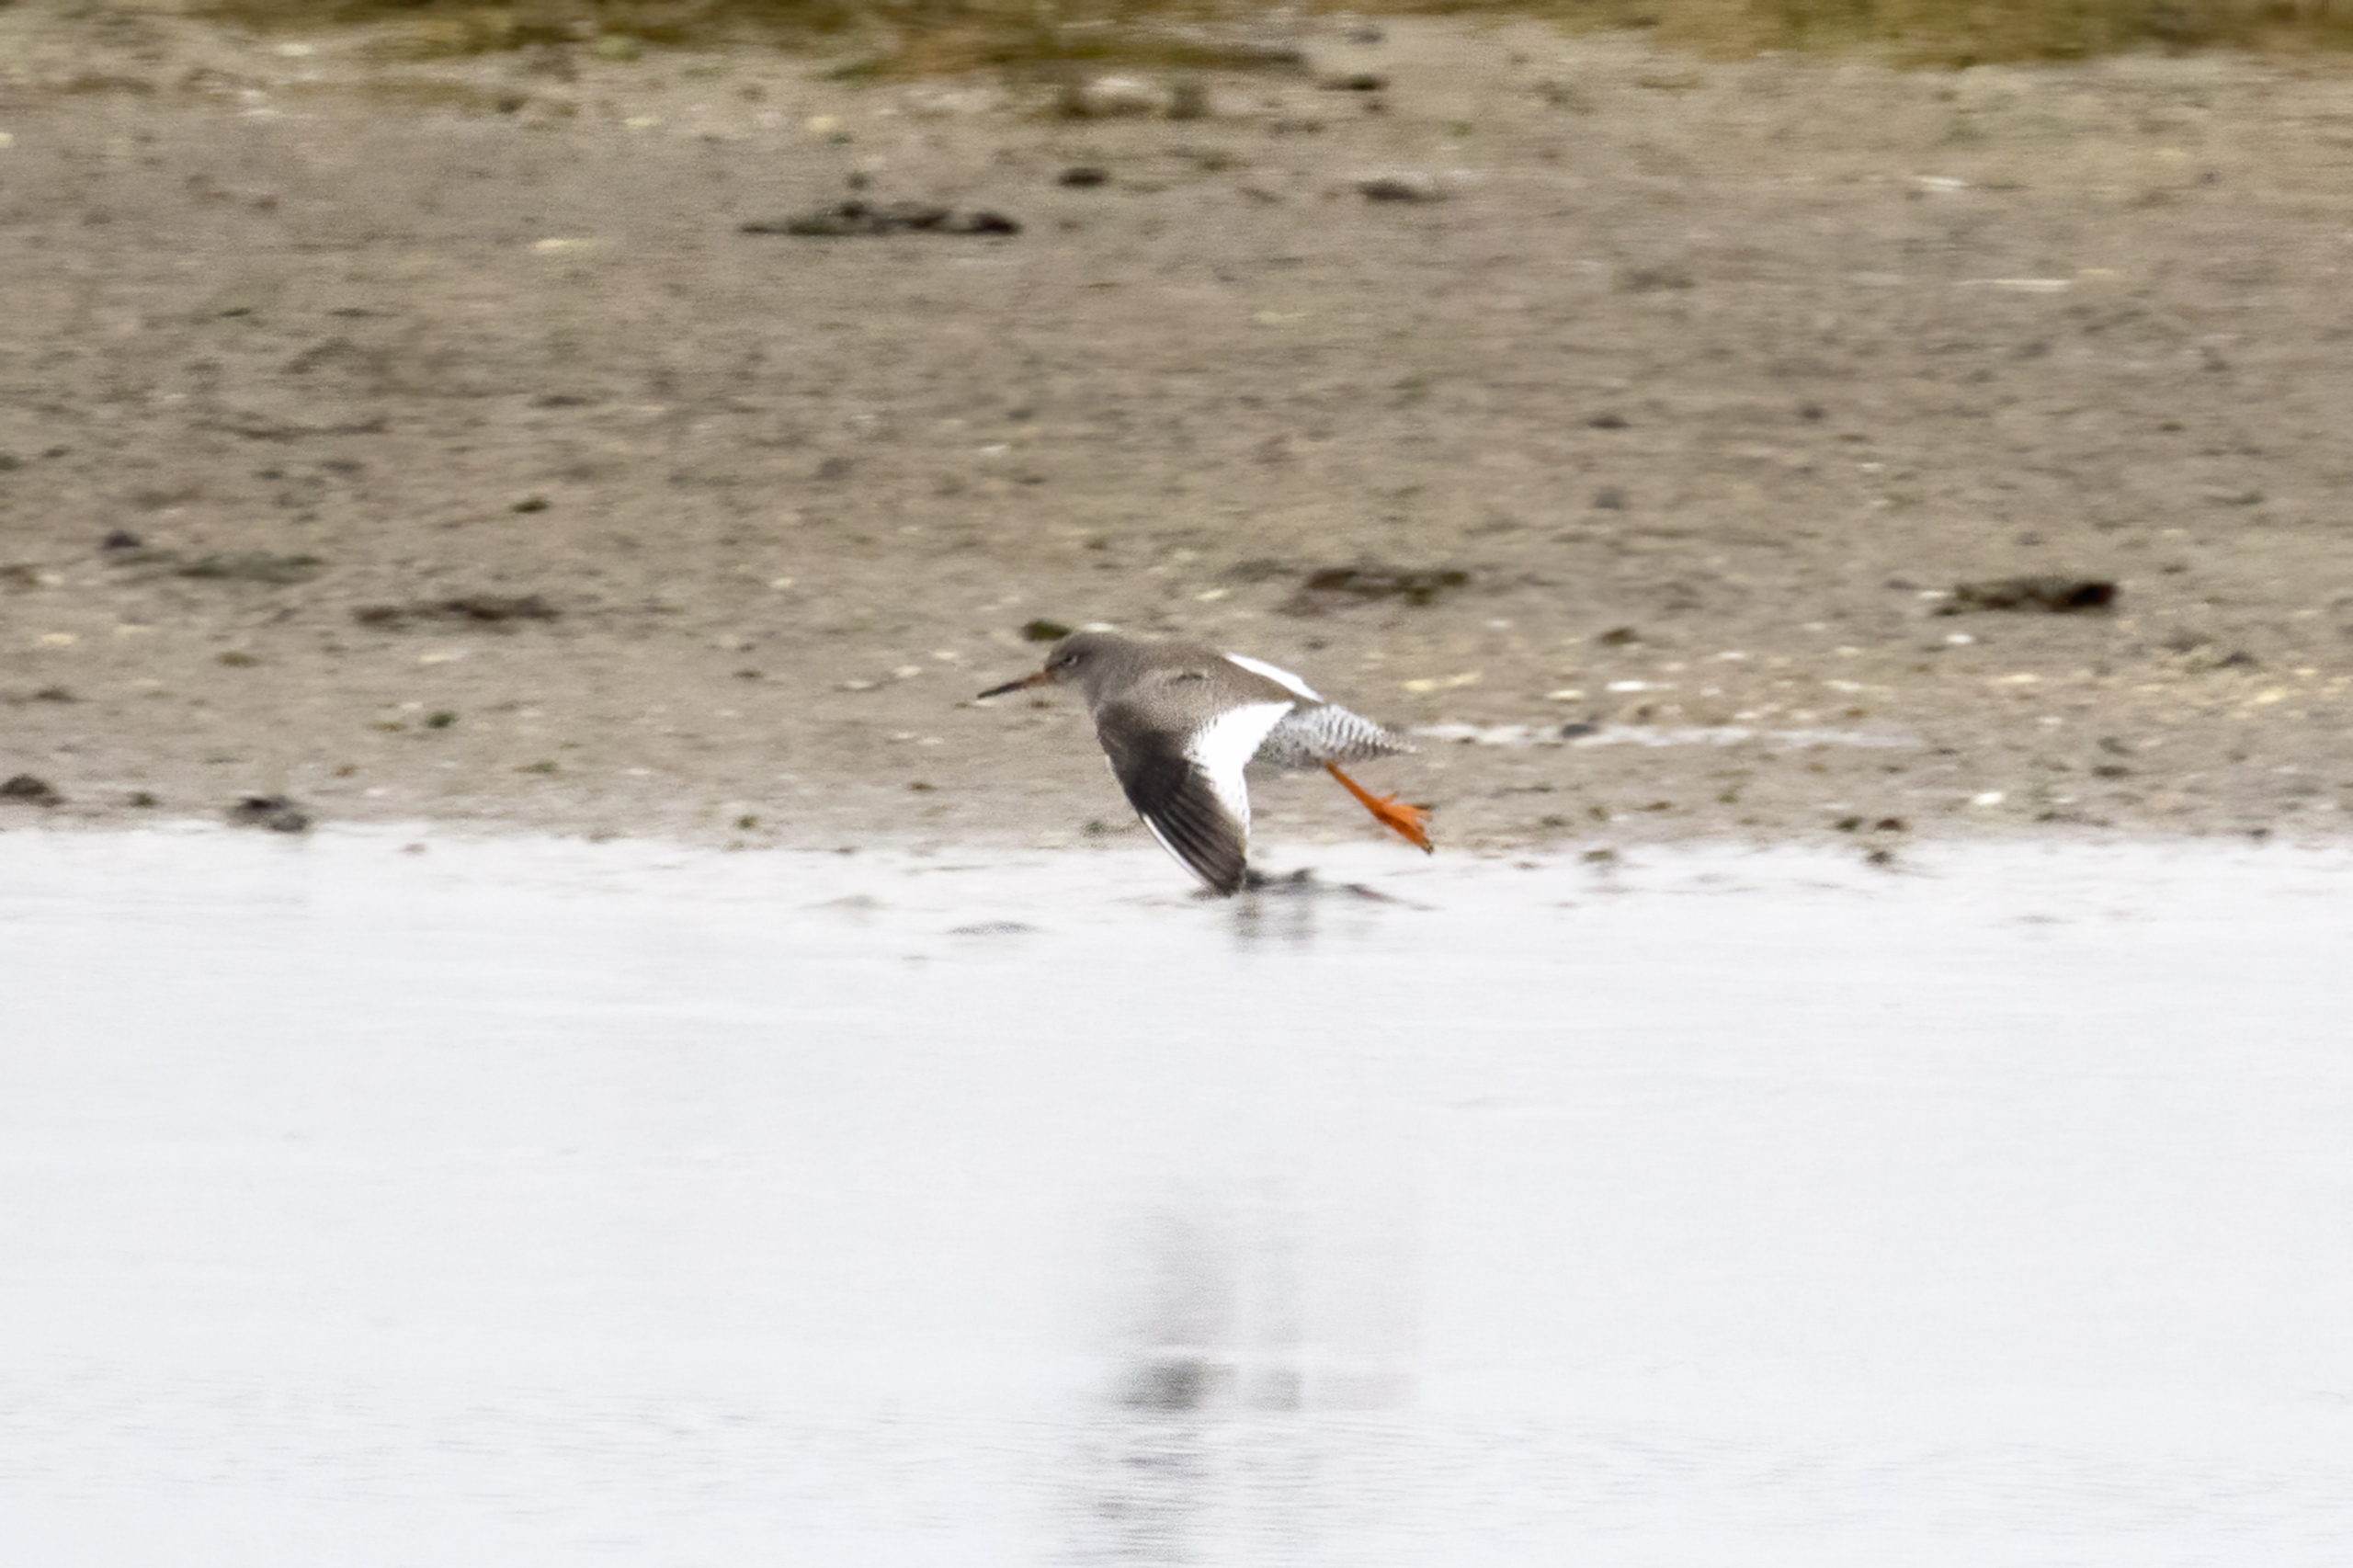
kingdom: Animalia
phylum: Chordata
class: Aves
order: Charadriiformes
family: Scolopacidae
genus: Tringa
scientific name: Tringa totanus
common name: Rødben
